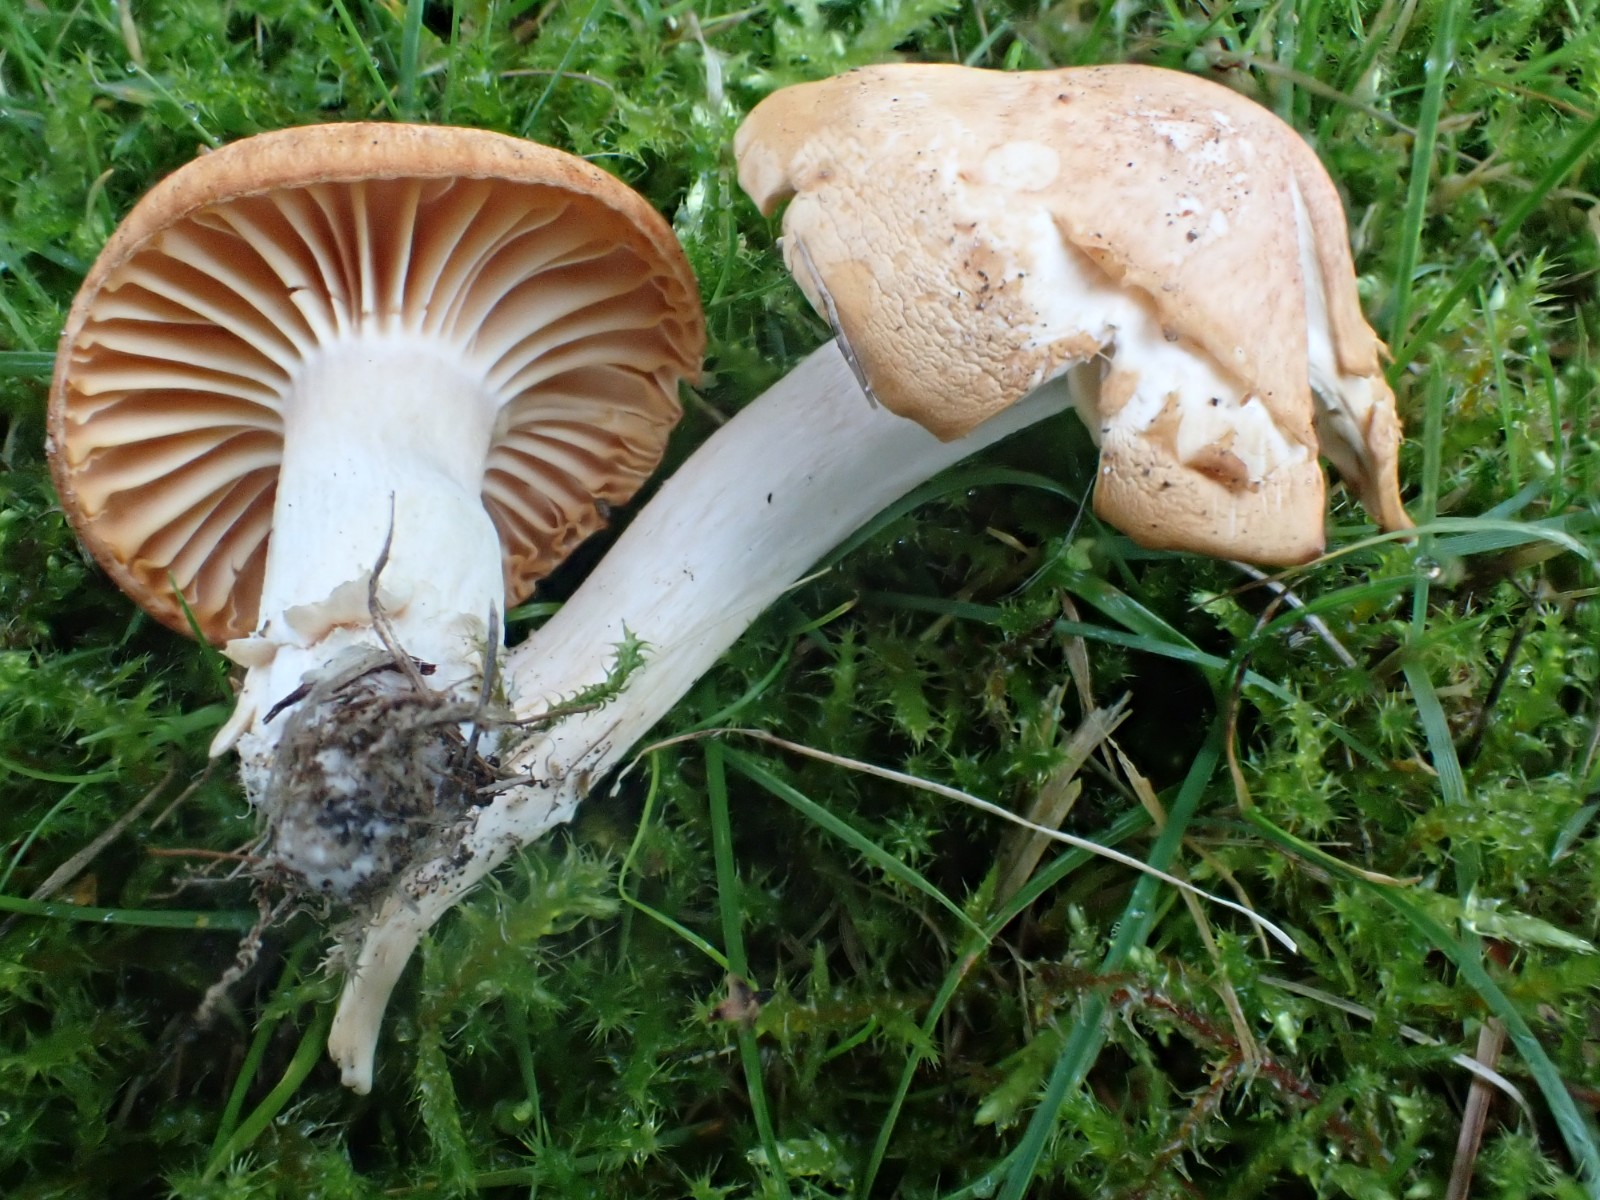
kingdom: Fungi
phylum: Basidiomycota
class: Agaricomycetes
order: Agaricales
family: Hygrophoraceae
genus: Cuphophyllus
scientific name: Cuphophyllus pratensis
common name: eng-vokshat
